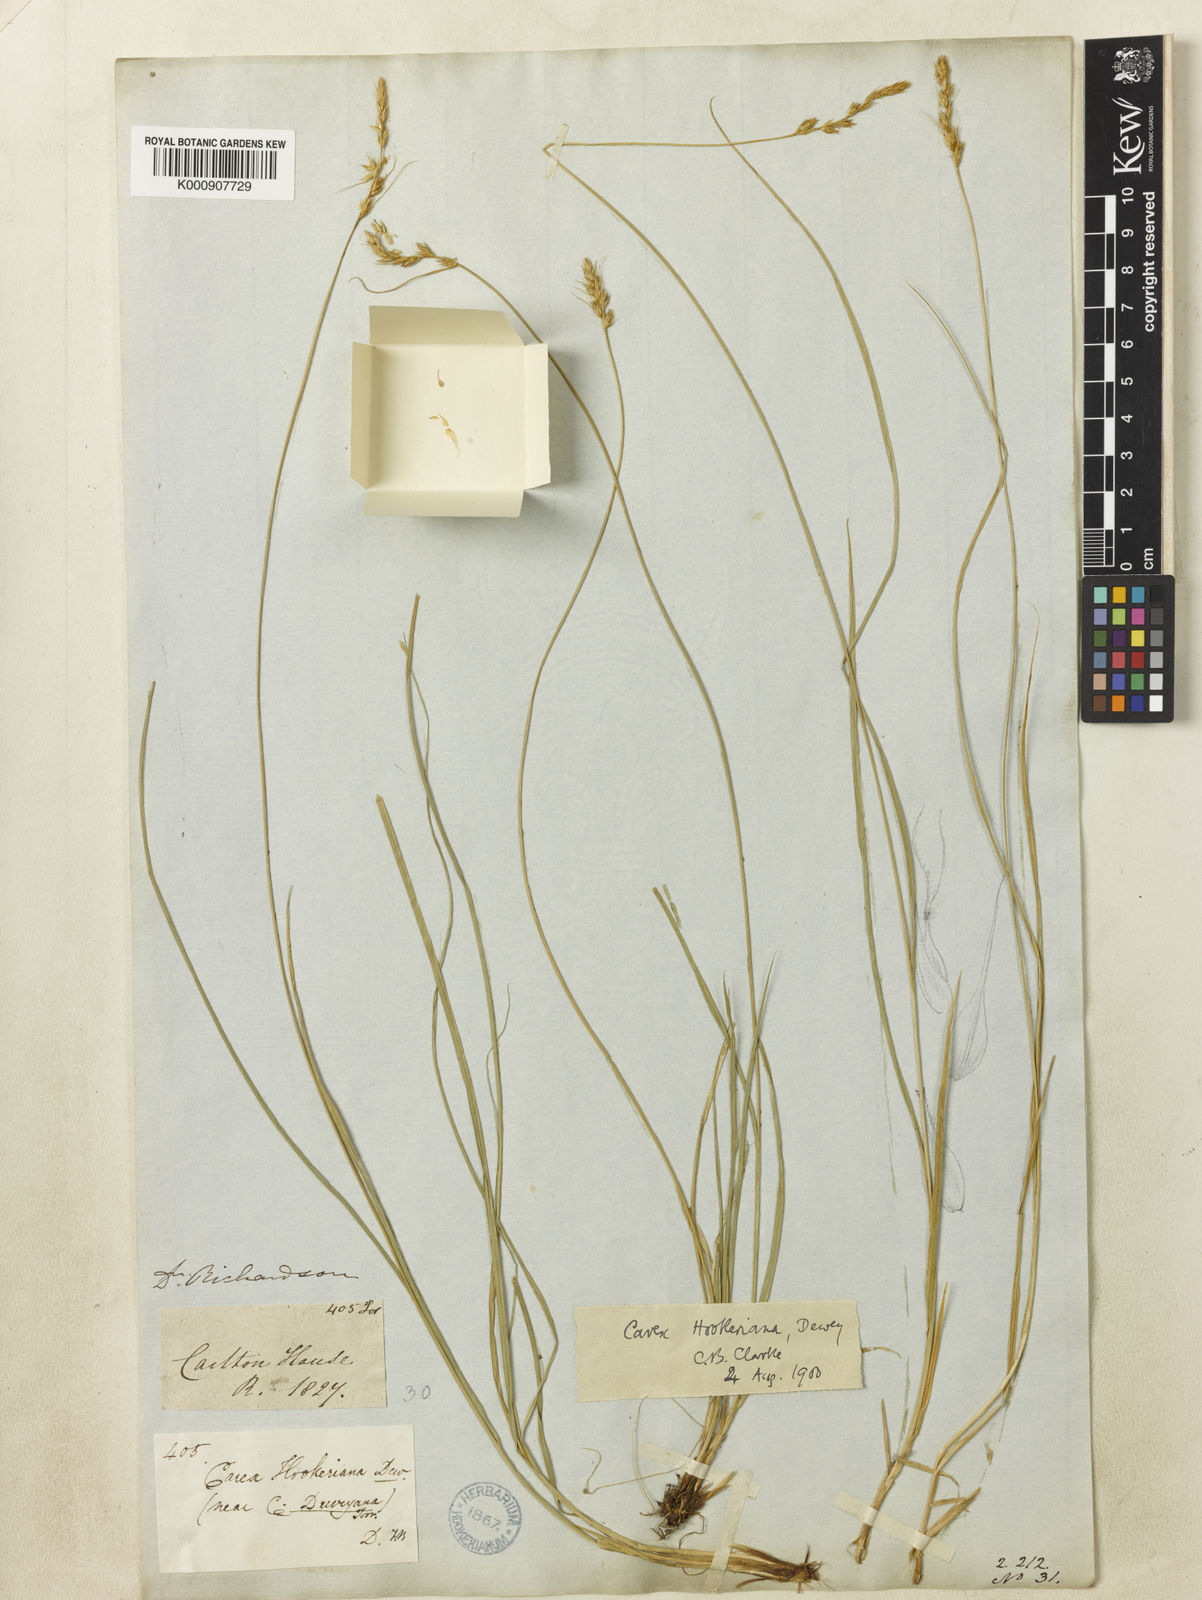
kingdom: Plantae
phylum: Tracheophyta
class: Liliopsida
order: Poales
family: Cyperaceae
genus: Carex
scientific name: Carex hookeriana
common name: Hooker's sedge
